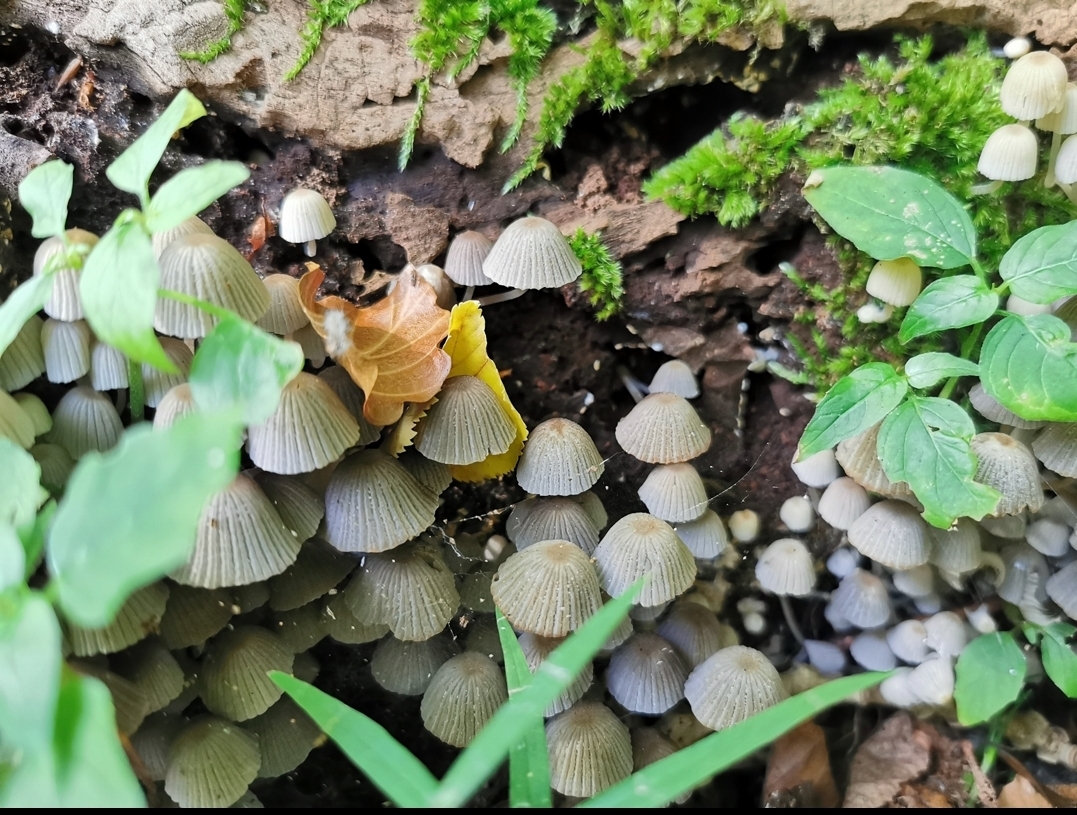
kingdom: Fungi
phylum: Basidiomycota
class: Agaricomycetes
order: Agaricales
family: Psathyrellaceae
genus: Coprinellus
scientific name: Coprinellus disseminatus
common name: bredsået blækhat
